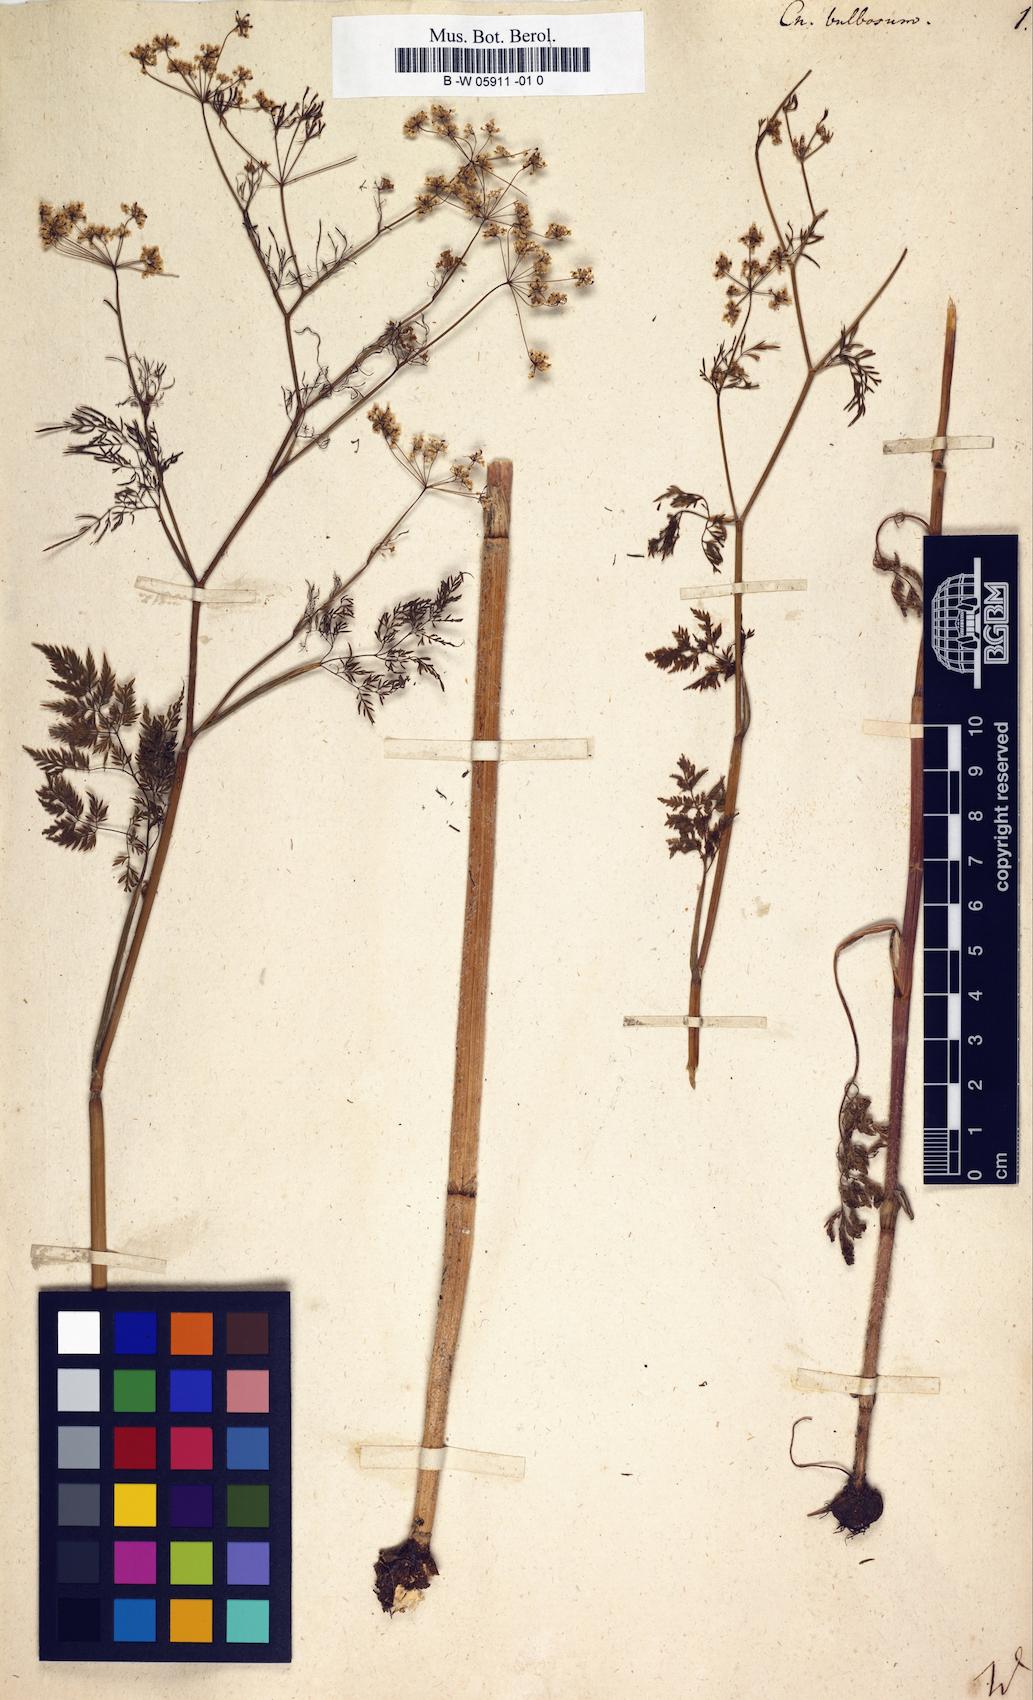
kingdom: Plantae
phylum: Tracheophyta
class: Magnoliopsida
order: Apiales
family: Apiaceae
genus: Chaerophyllum
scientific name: Chaerophyllum bulbosum
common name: Bulbous chervil
